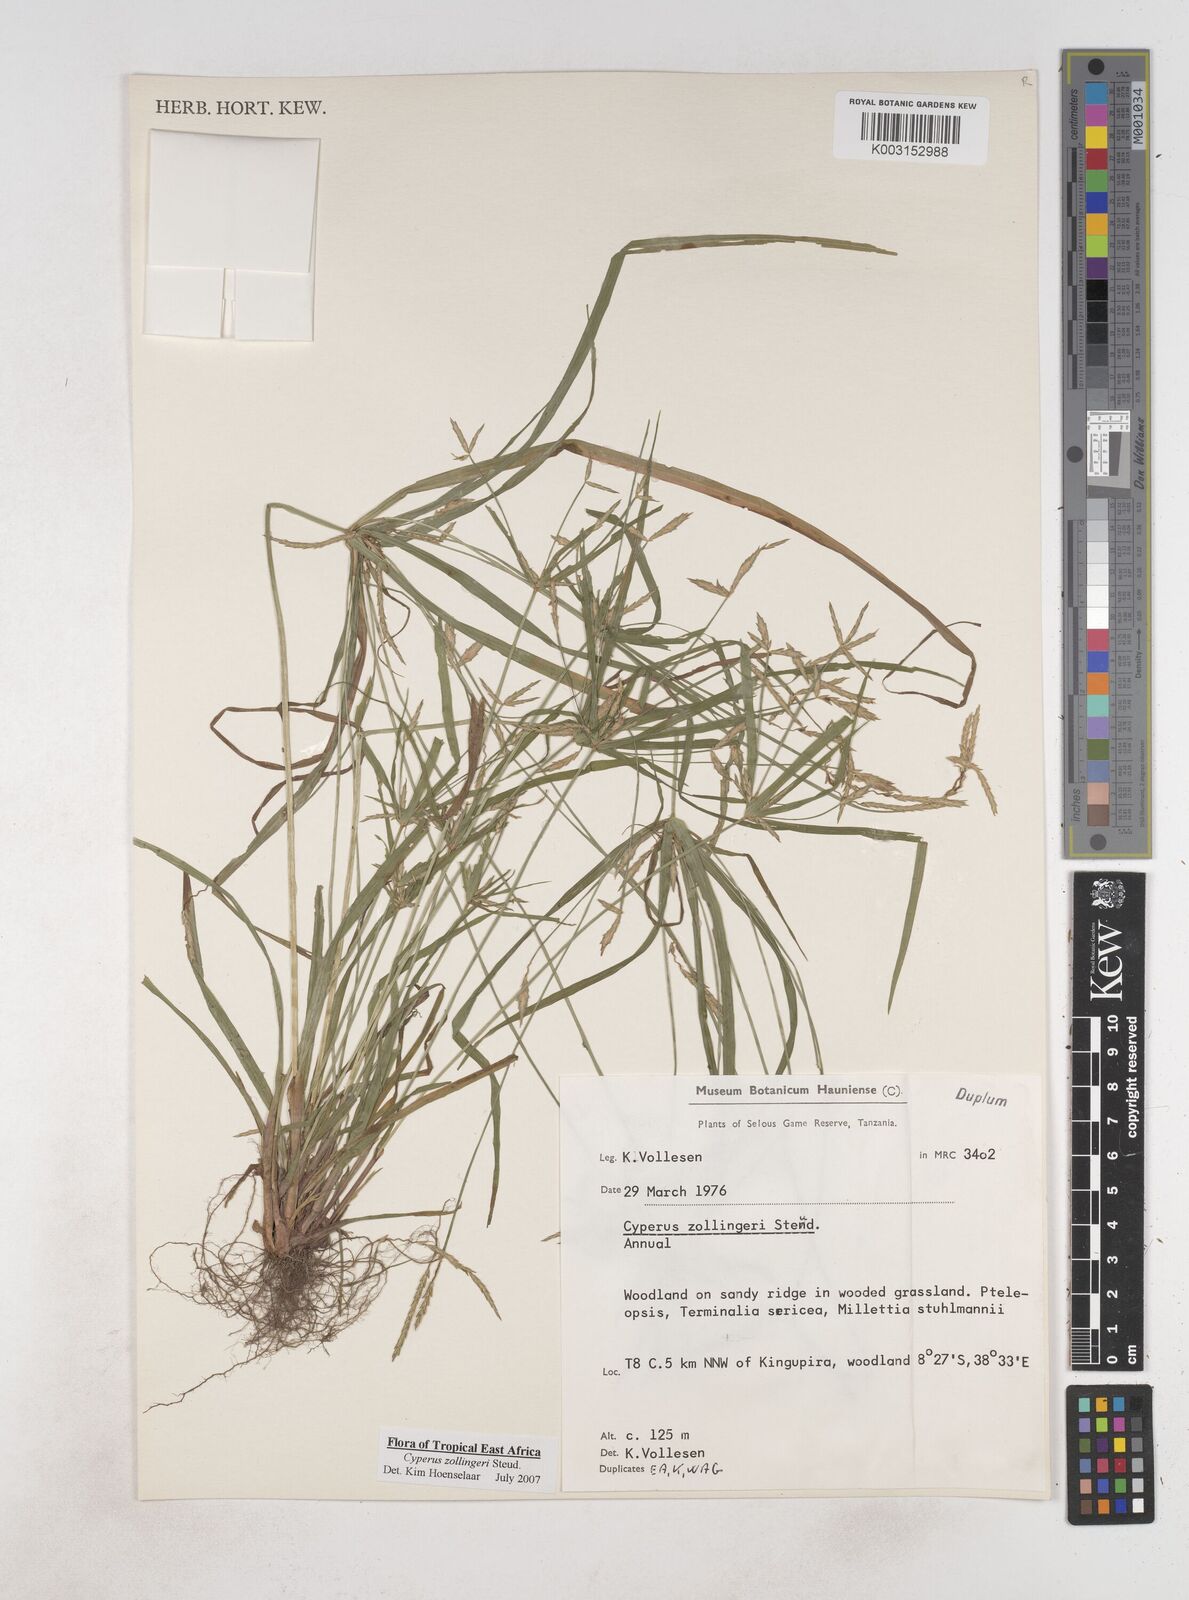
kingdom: Plantae
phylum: Tracheophyta
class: Liliopsida
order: Poales
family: Cyperaceae
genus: Cyperus
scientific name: Cyperus zollingeri
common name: Roadside flatsedge
